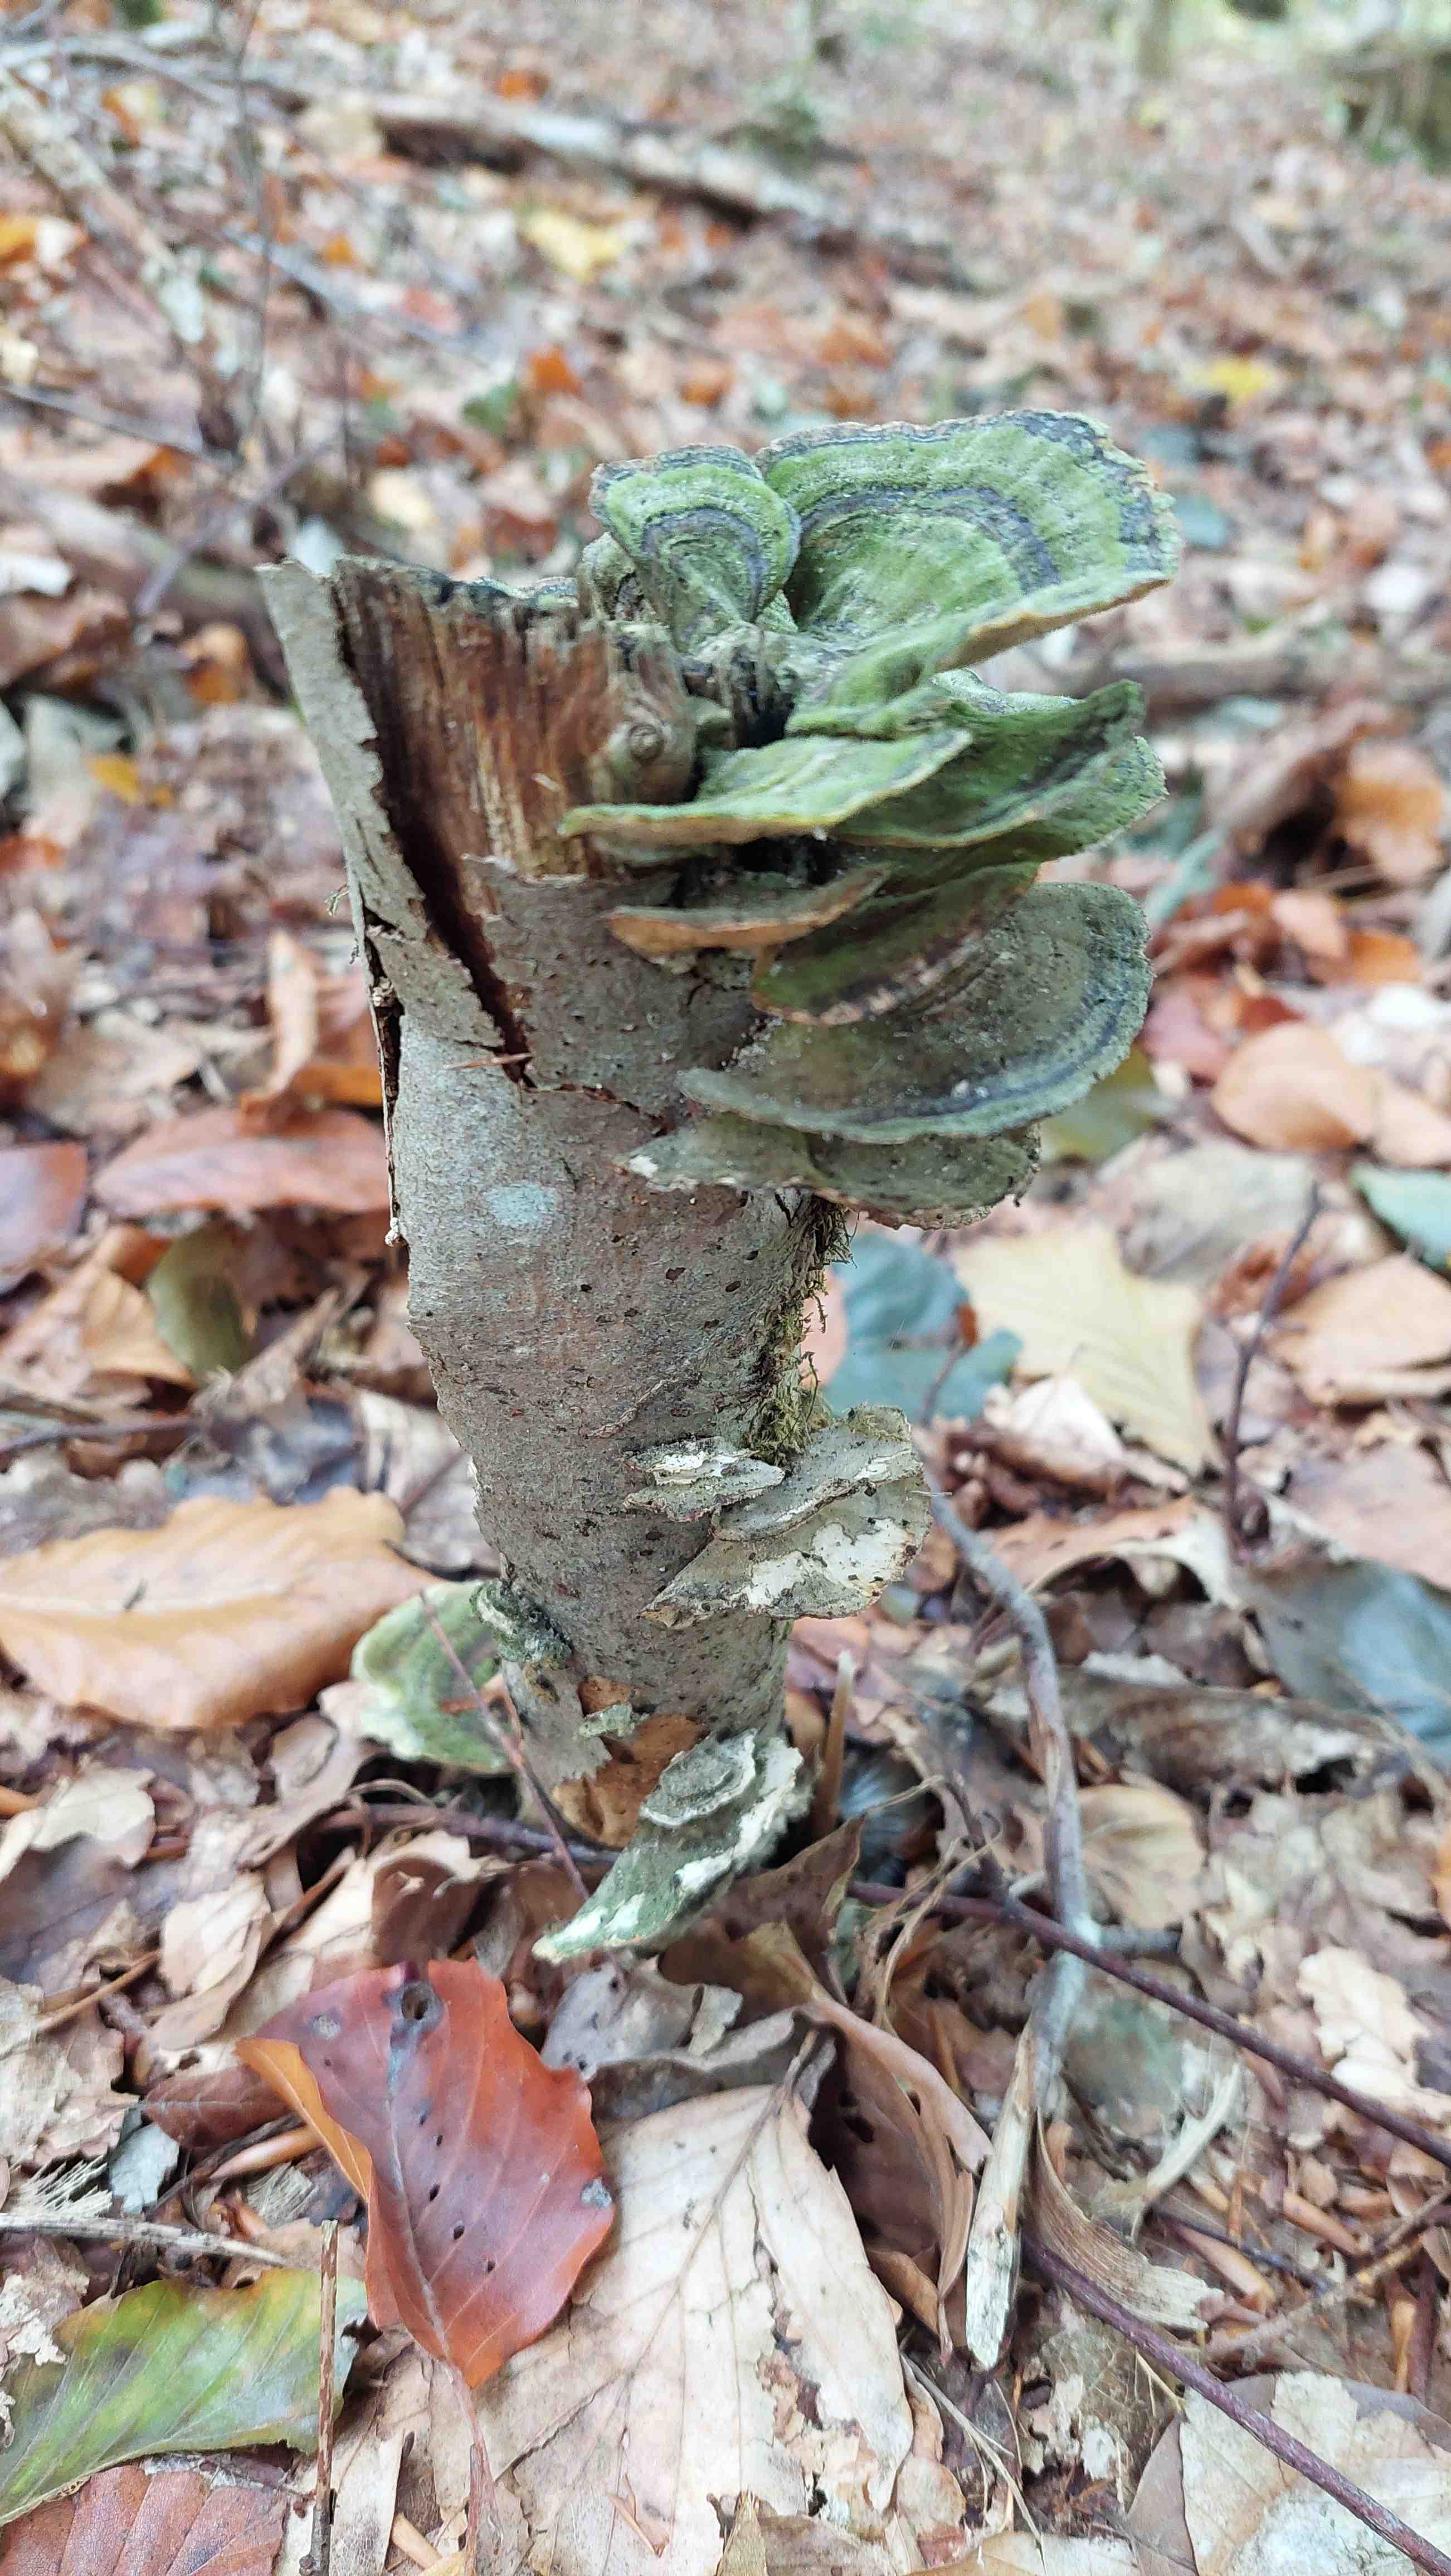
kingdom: Fungi
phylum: Basidiomycota
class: Agaricomycetes
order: Polyporales
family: Polyporaceae
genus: Trametes
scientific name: Trametes versicolor
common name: broget læderporesvamp
